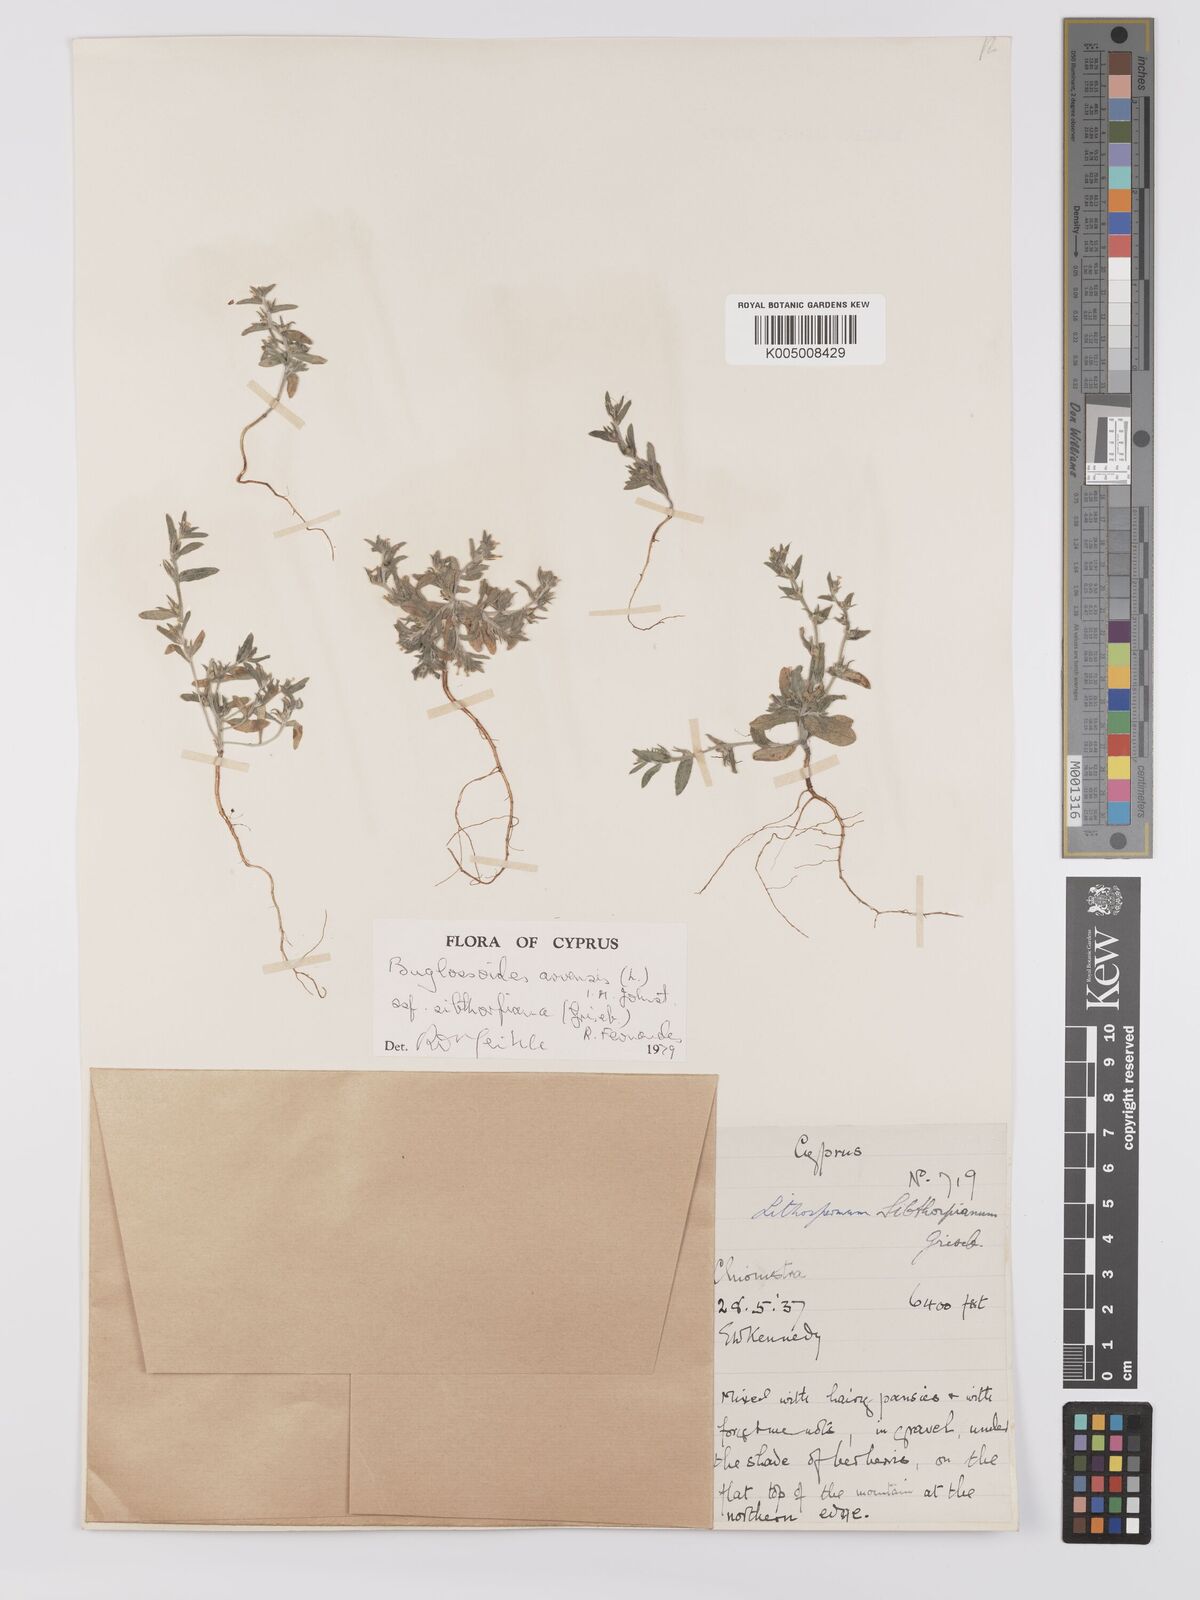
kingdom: Plantae
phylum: Tracheophyta
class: Magnoliopsida
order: Boraginales
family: Boraginaceae
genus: Buglossoides
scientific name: Buglossoides
